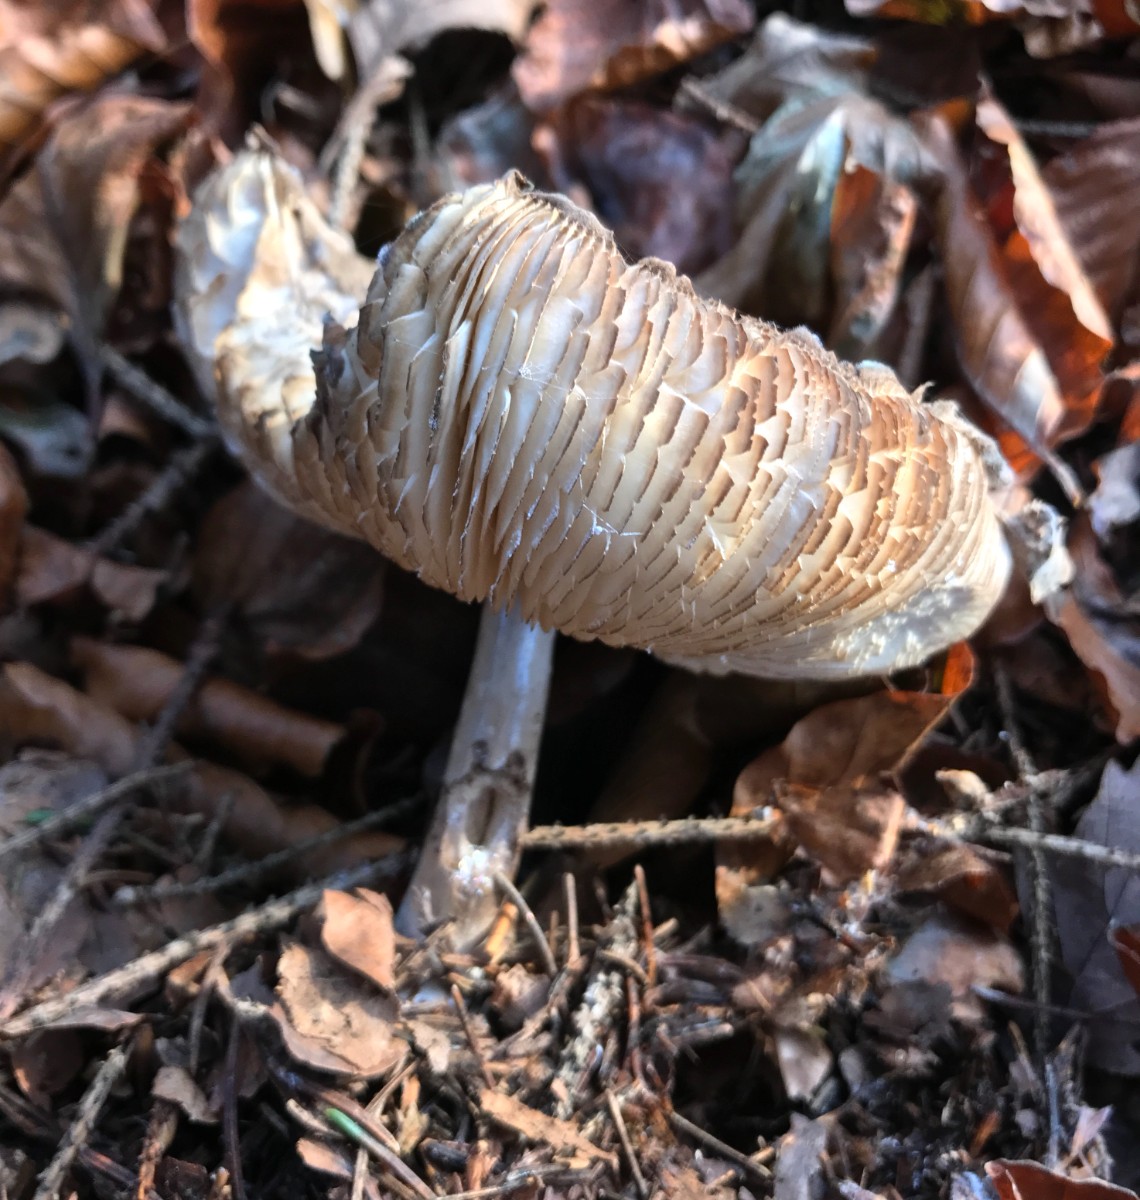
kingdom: Fungi
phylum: Basidiomycota
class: Agaricomycetes
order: Agaricales
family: Agaricaceae
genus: Chlorophyllum
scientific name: Chlorophyllum olivieri
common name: almindelig rabarberhat
